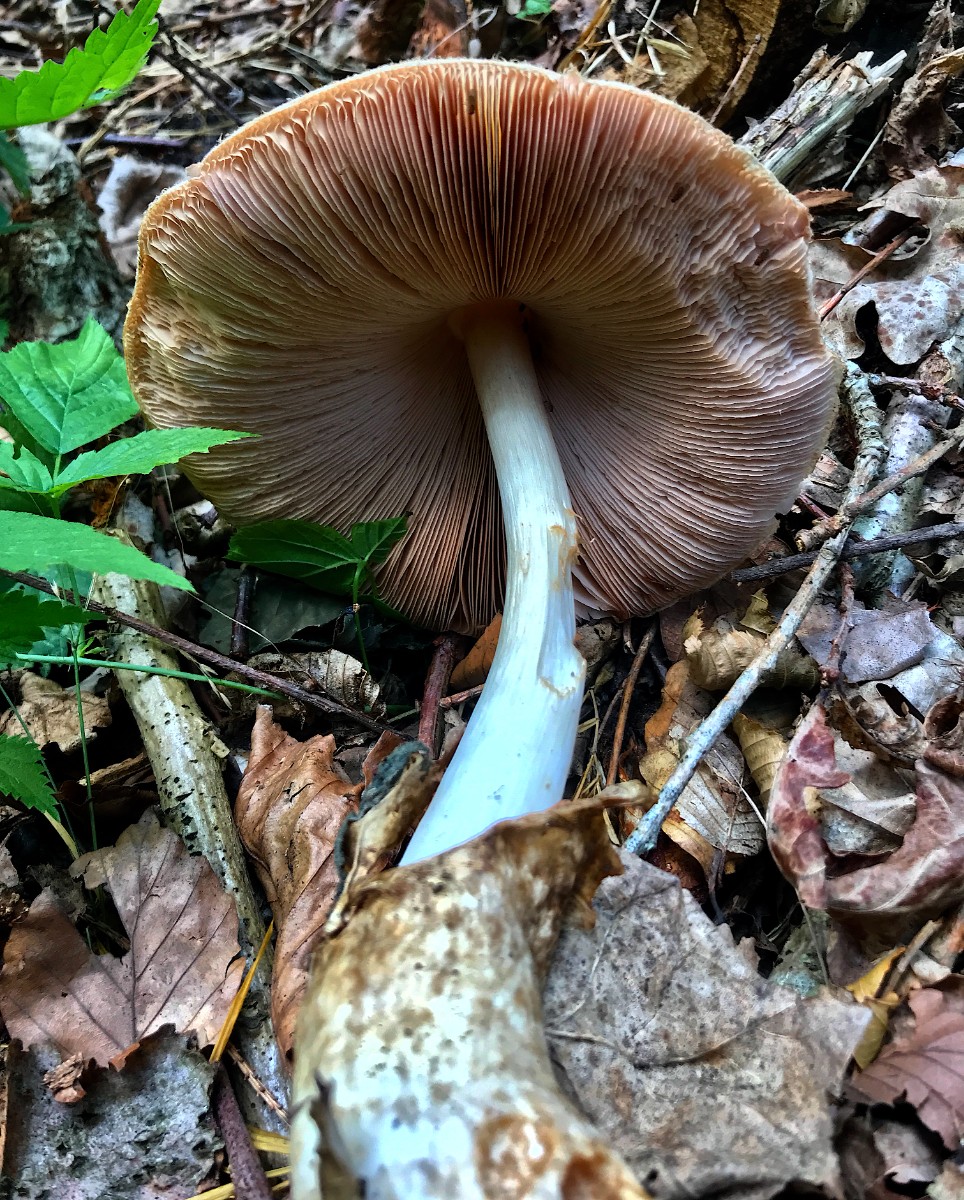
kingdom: Fungi
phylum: Basidiomycota
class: Agaricomycetes
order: Agaricales
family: Pluteaceae
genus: Volvariella
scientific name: Volvariella bombycina
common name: silkehåret posesvamp
